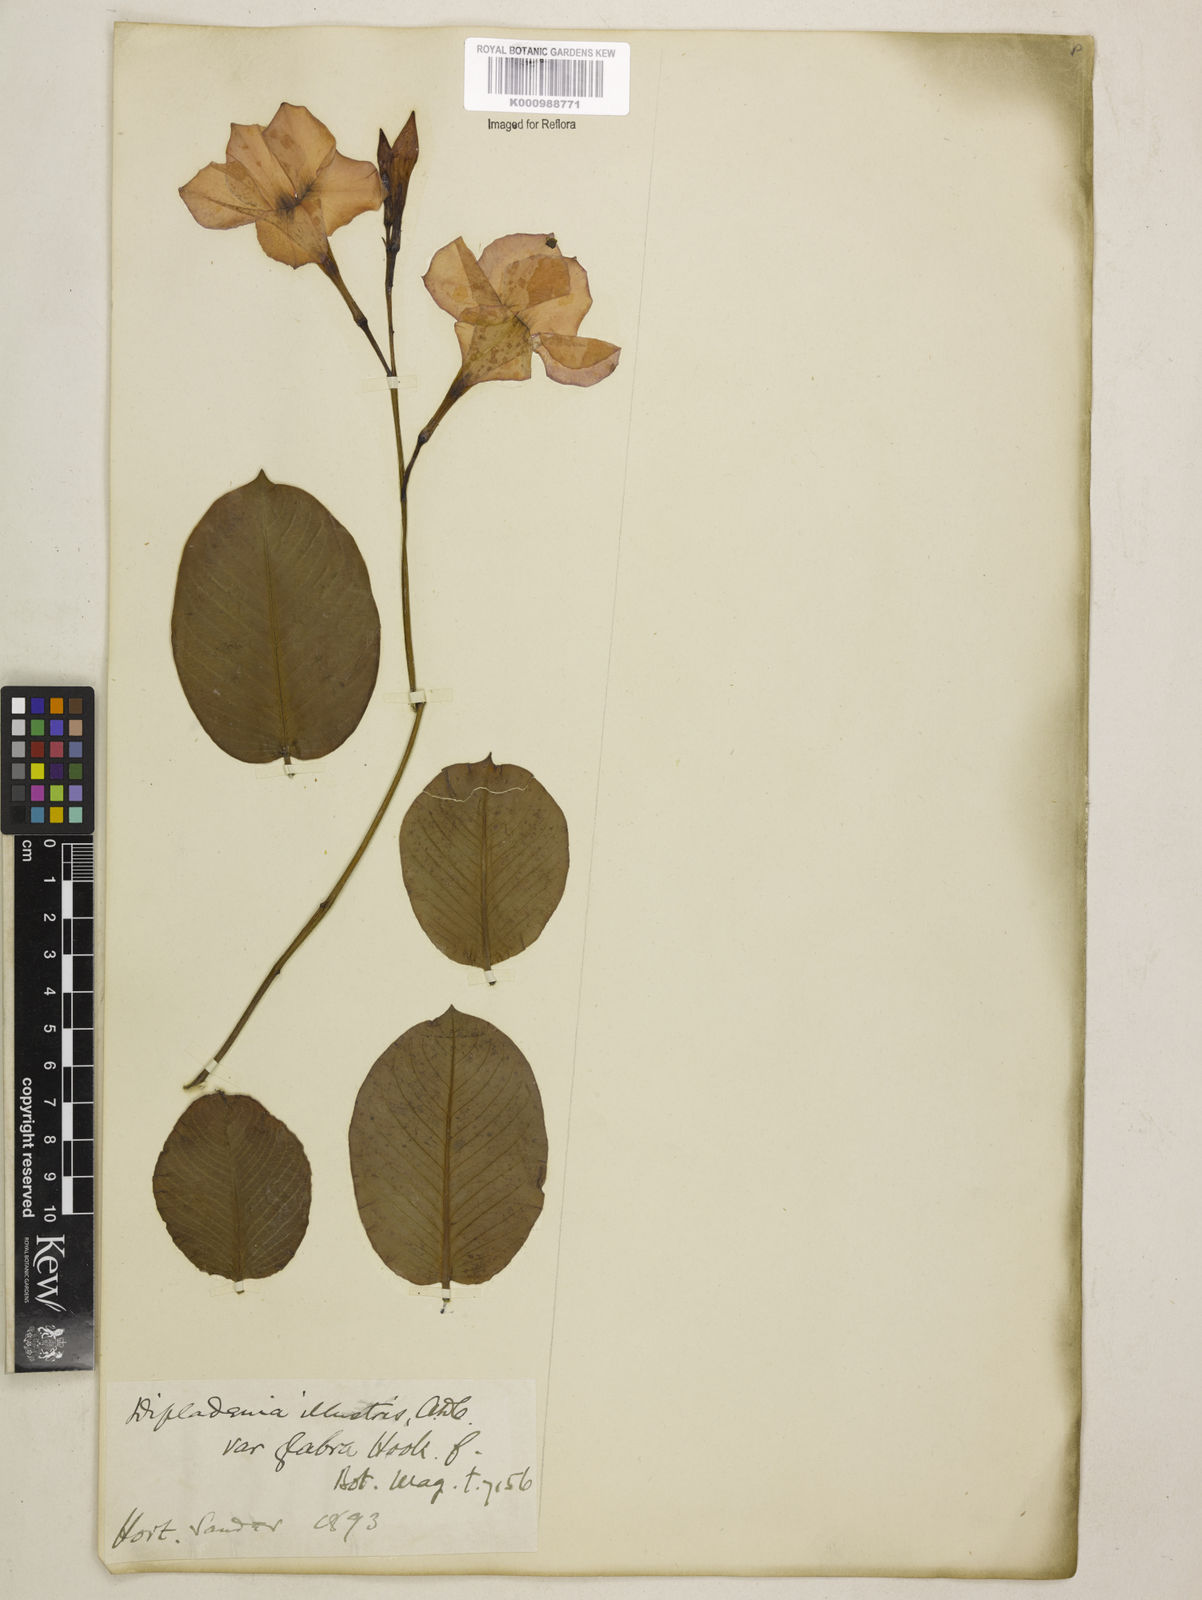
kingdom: Plantae
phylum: Tracheophyta
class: Magnoliopsida
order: Gentianales
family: Apocynaceae
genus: Mandevilla
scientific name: Mandevilla
